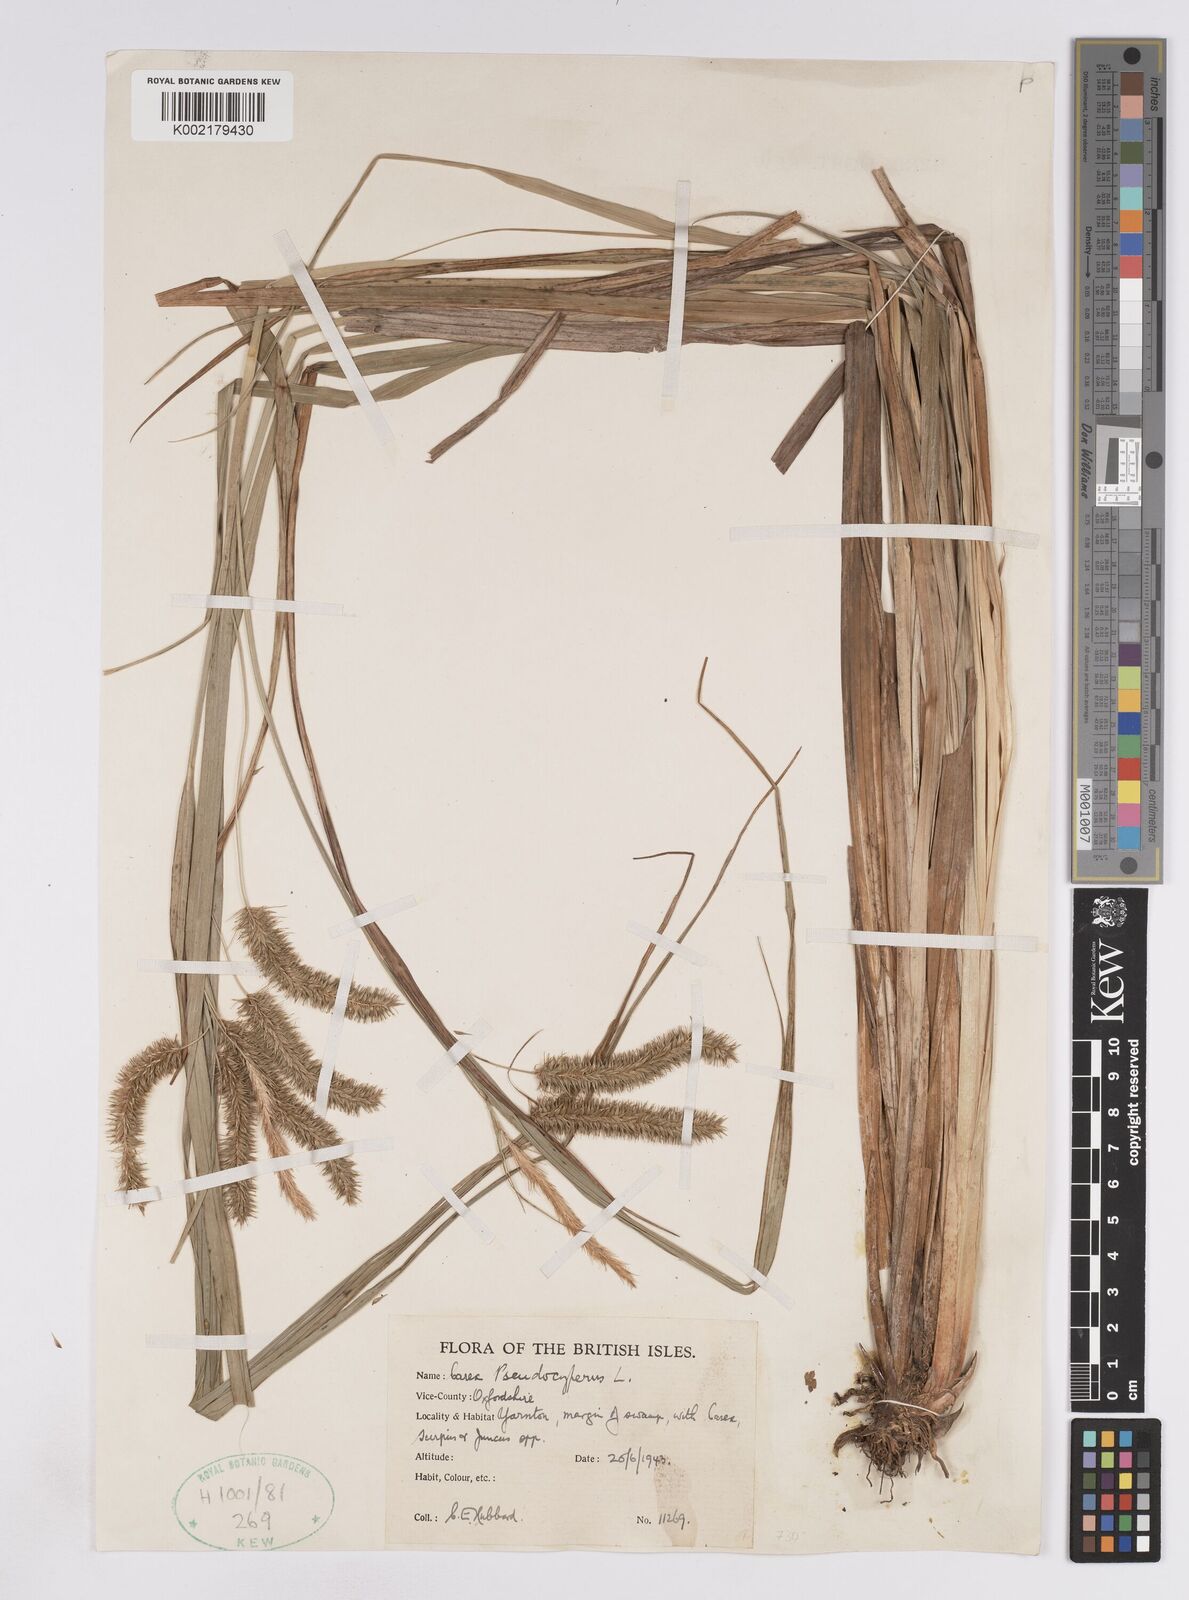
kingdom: Plantae
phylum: Tracheophyta
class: Liliopsida
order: Poales
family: Cyperaceae
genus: Carex
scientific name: Carex pseudocyperus
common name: Cyperus sedge
